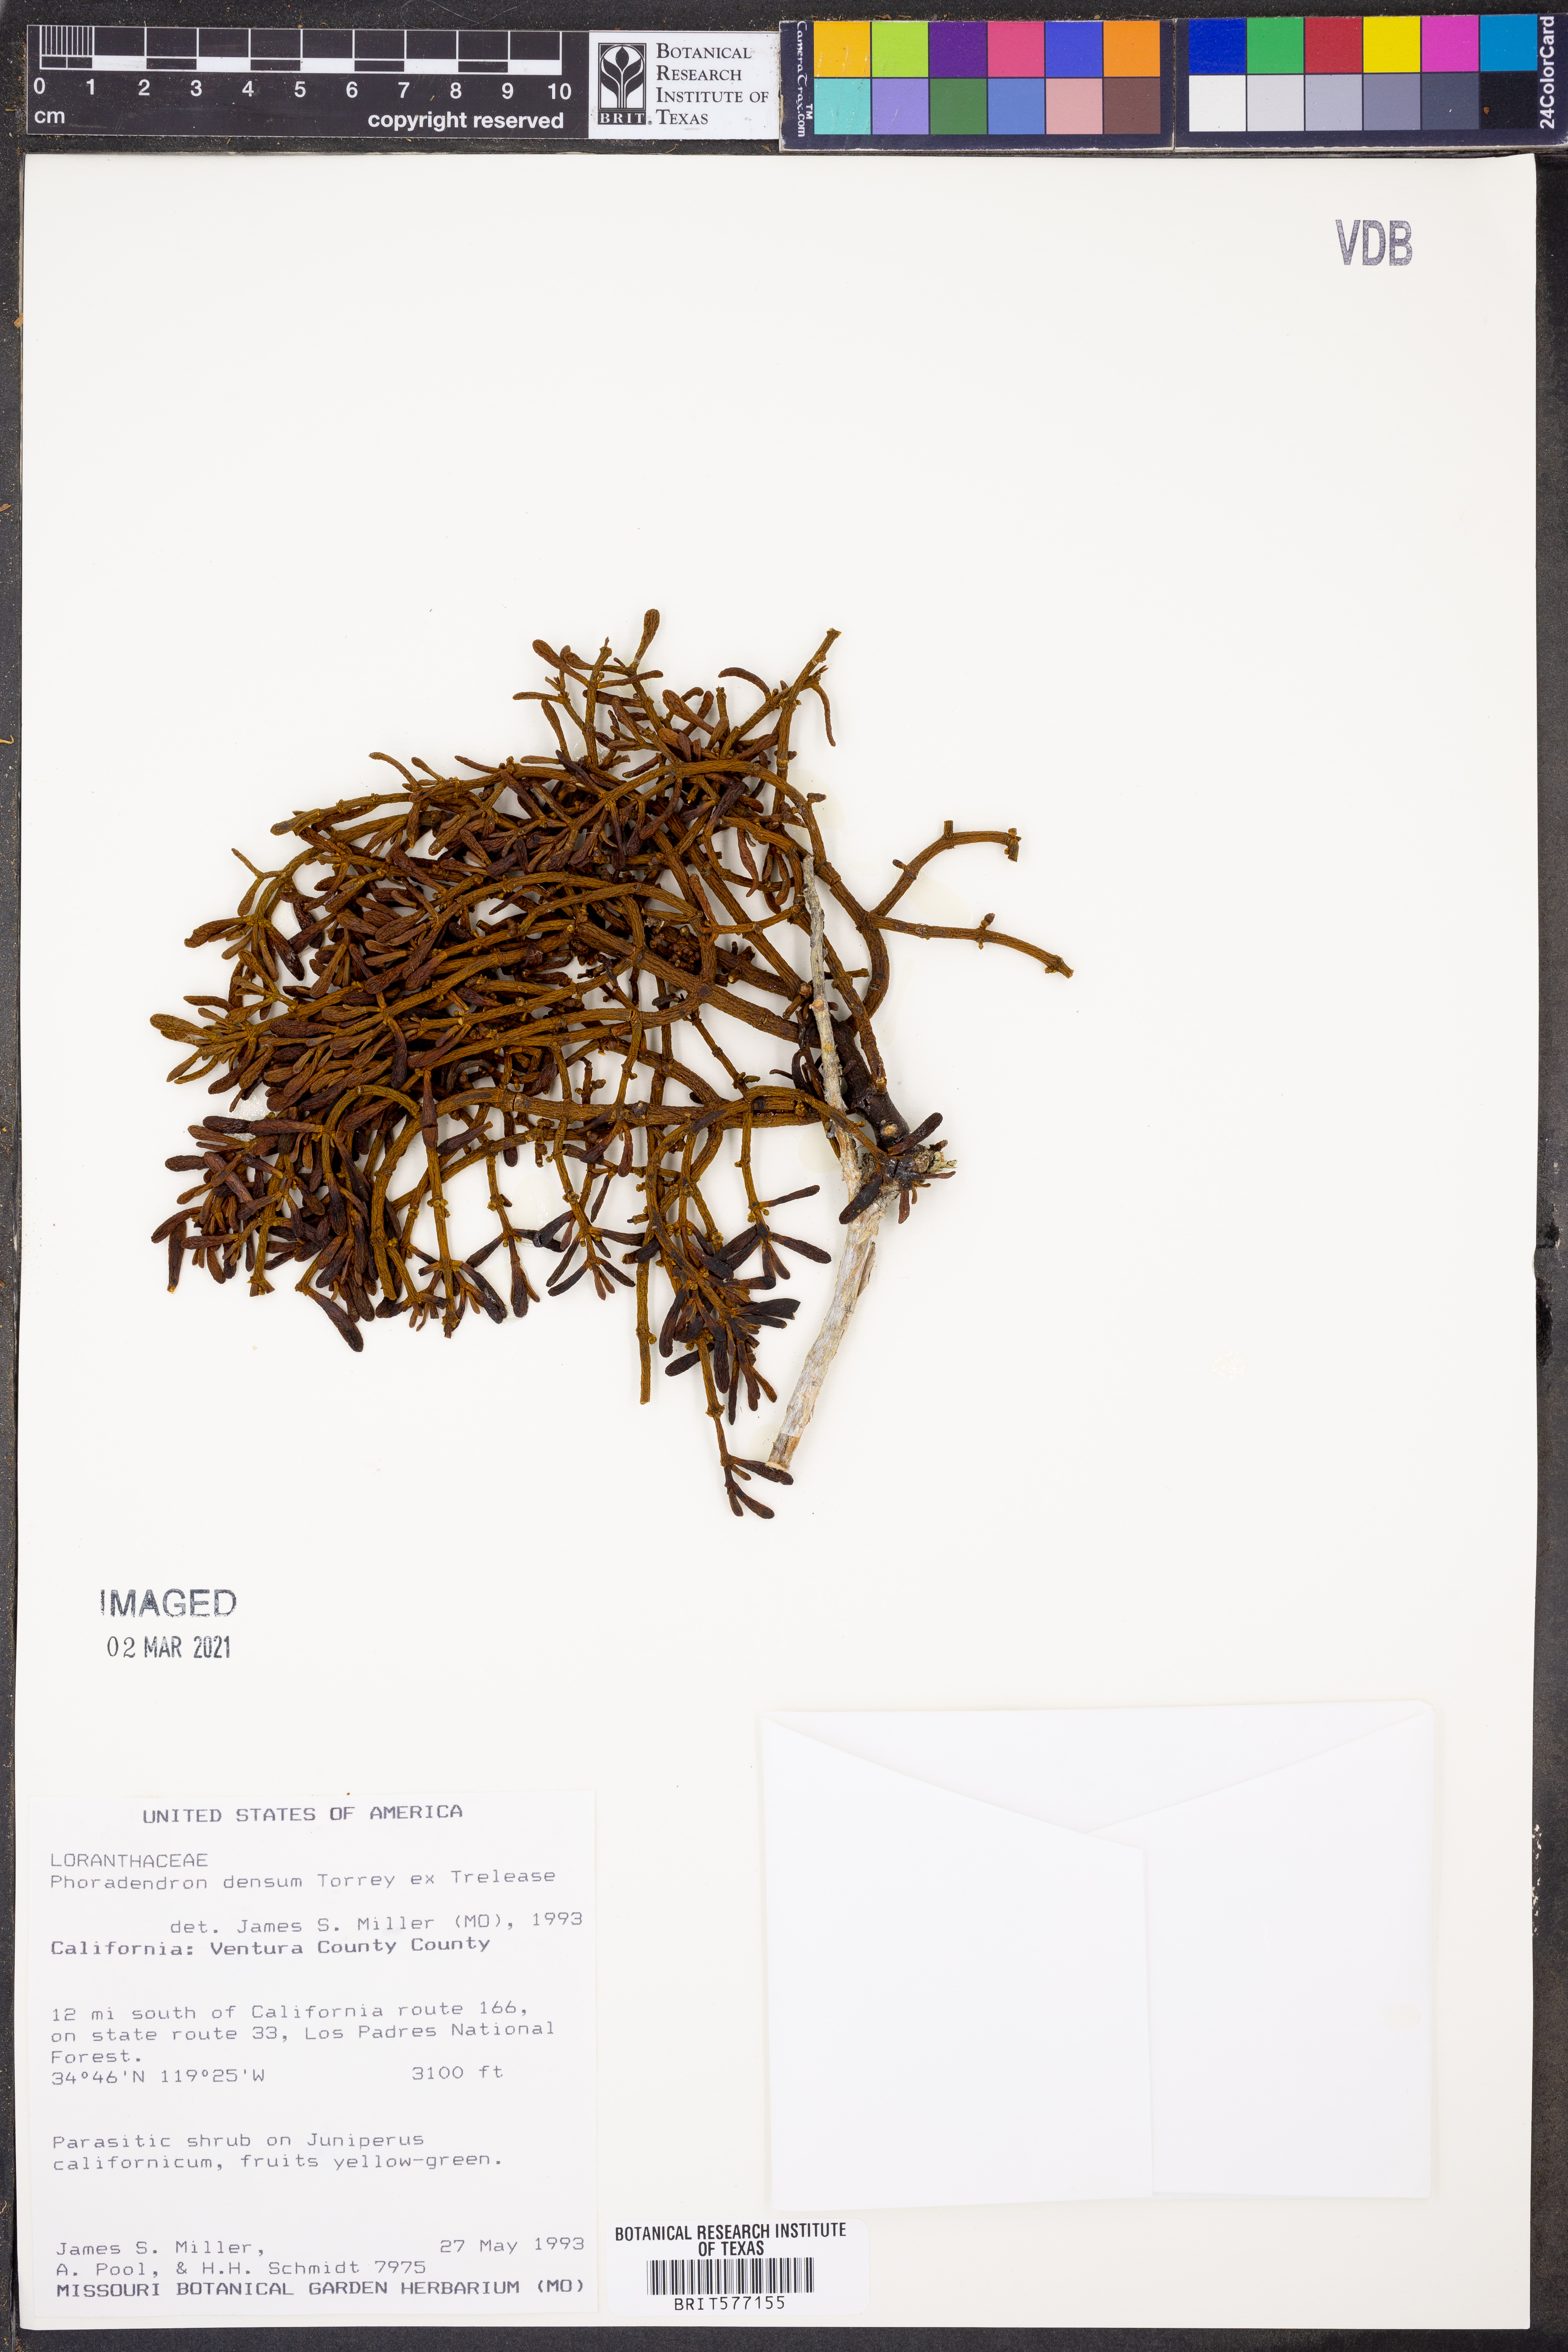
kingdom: Plantae
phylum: Tracheophyta
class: Magnoliopsida
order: Santalales
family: Viscaceae
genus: Phoradendron
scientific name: Phoradendron densum
